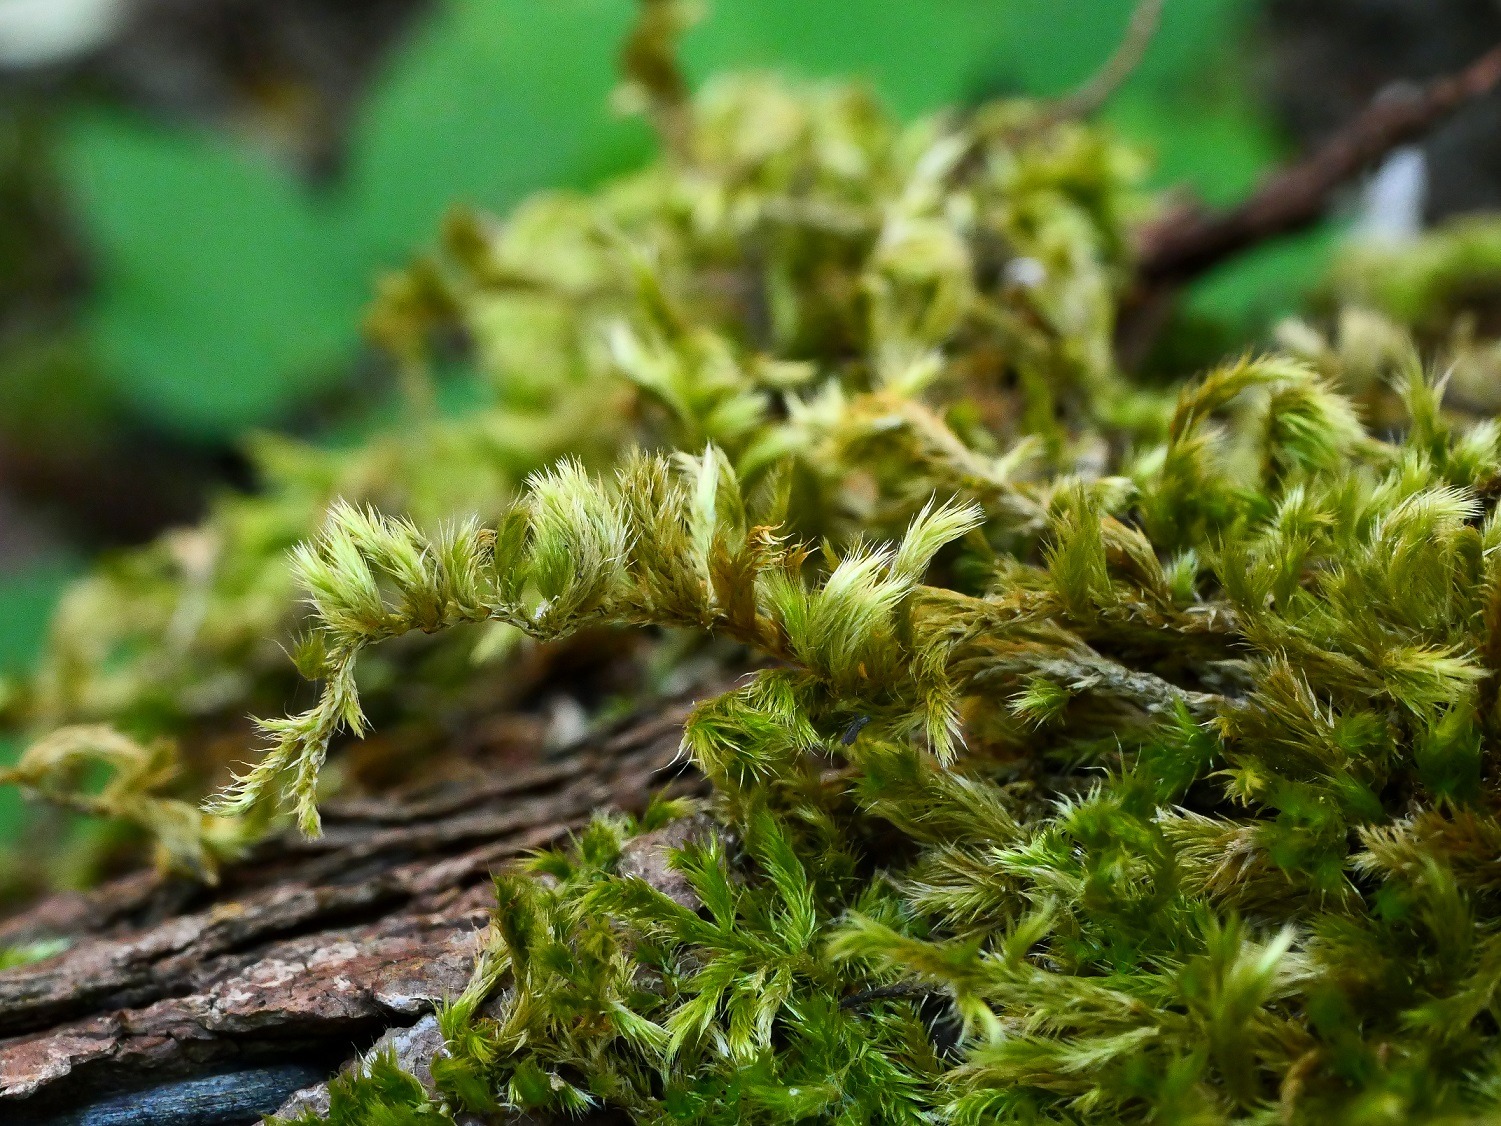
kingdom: Plantae
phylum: Bryophyta
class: Bryopsida
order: Hypnales
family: Brachytheciaceae
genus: Homalothecium
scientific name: Homalothecium sericeum
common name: Krybende silkemos
